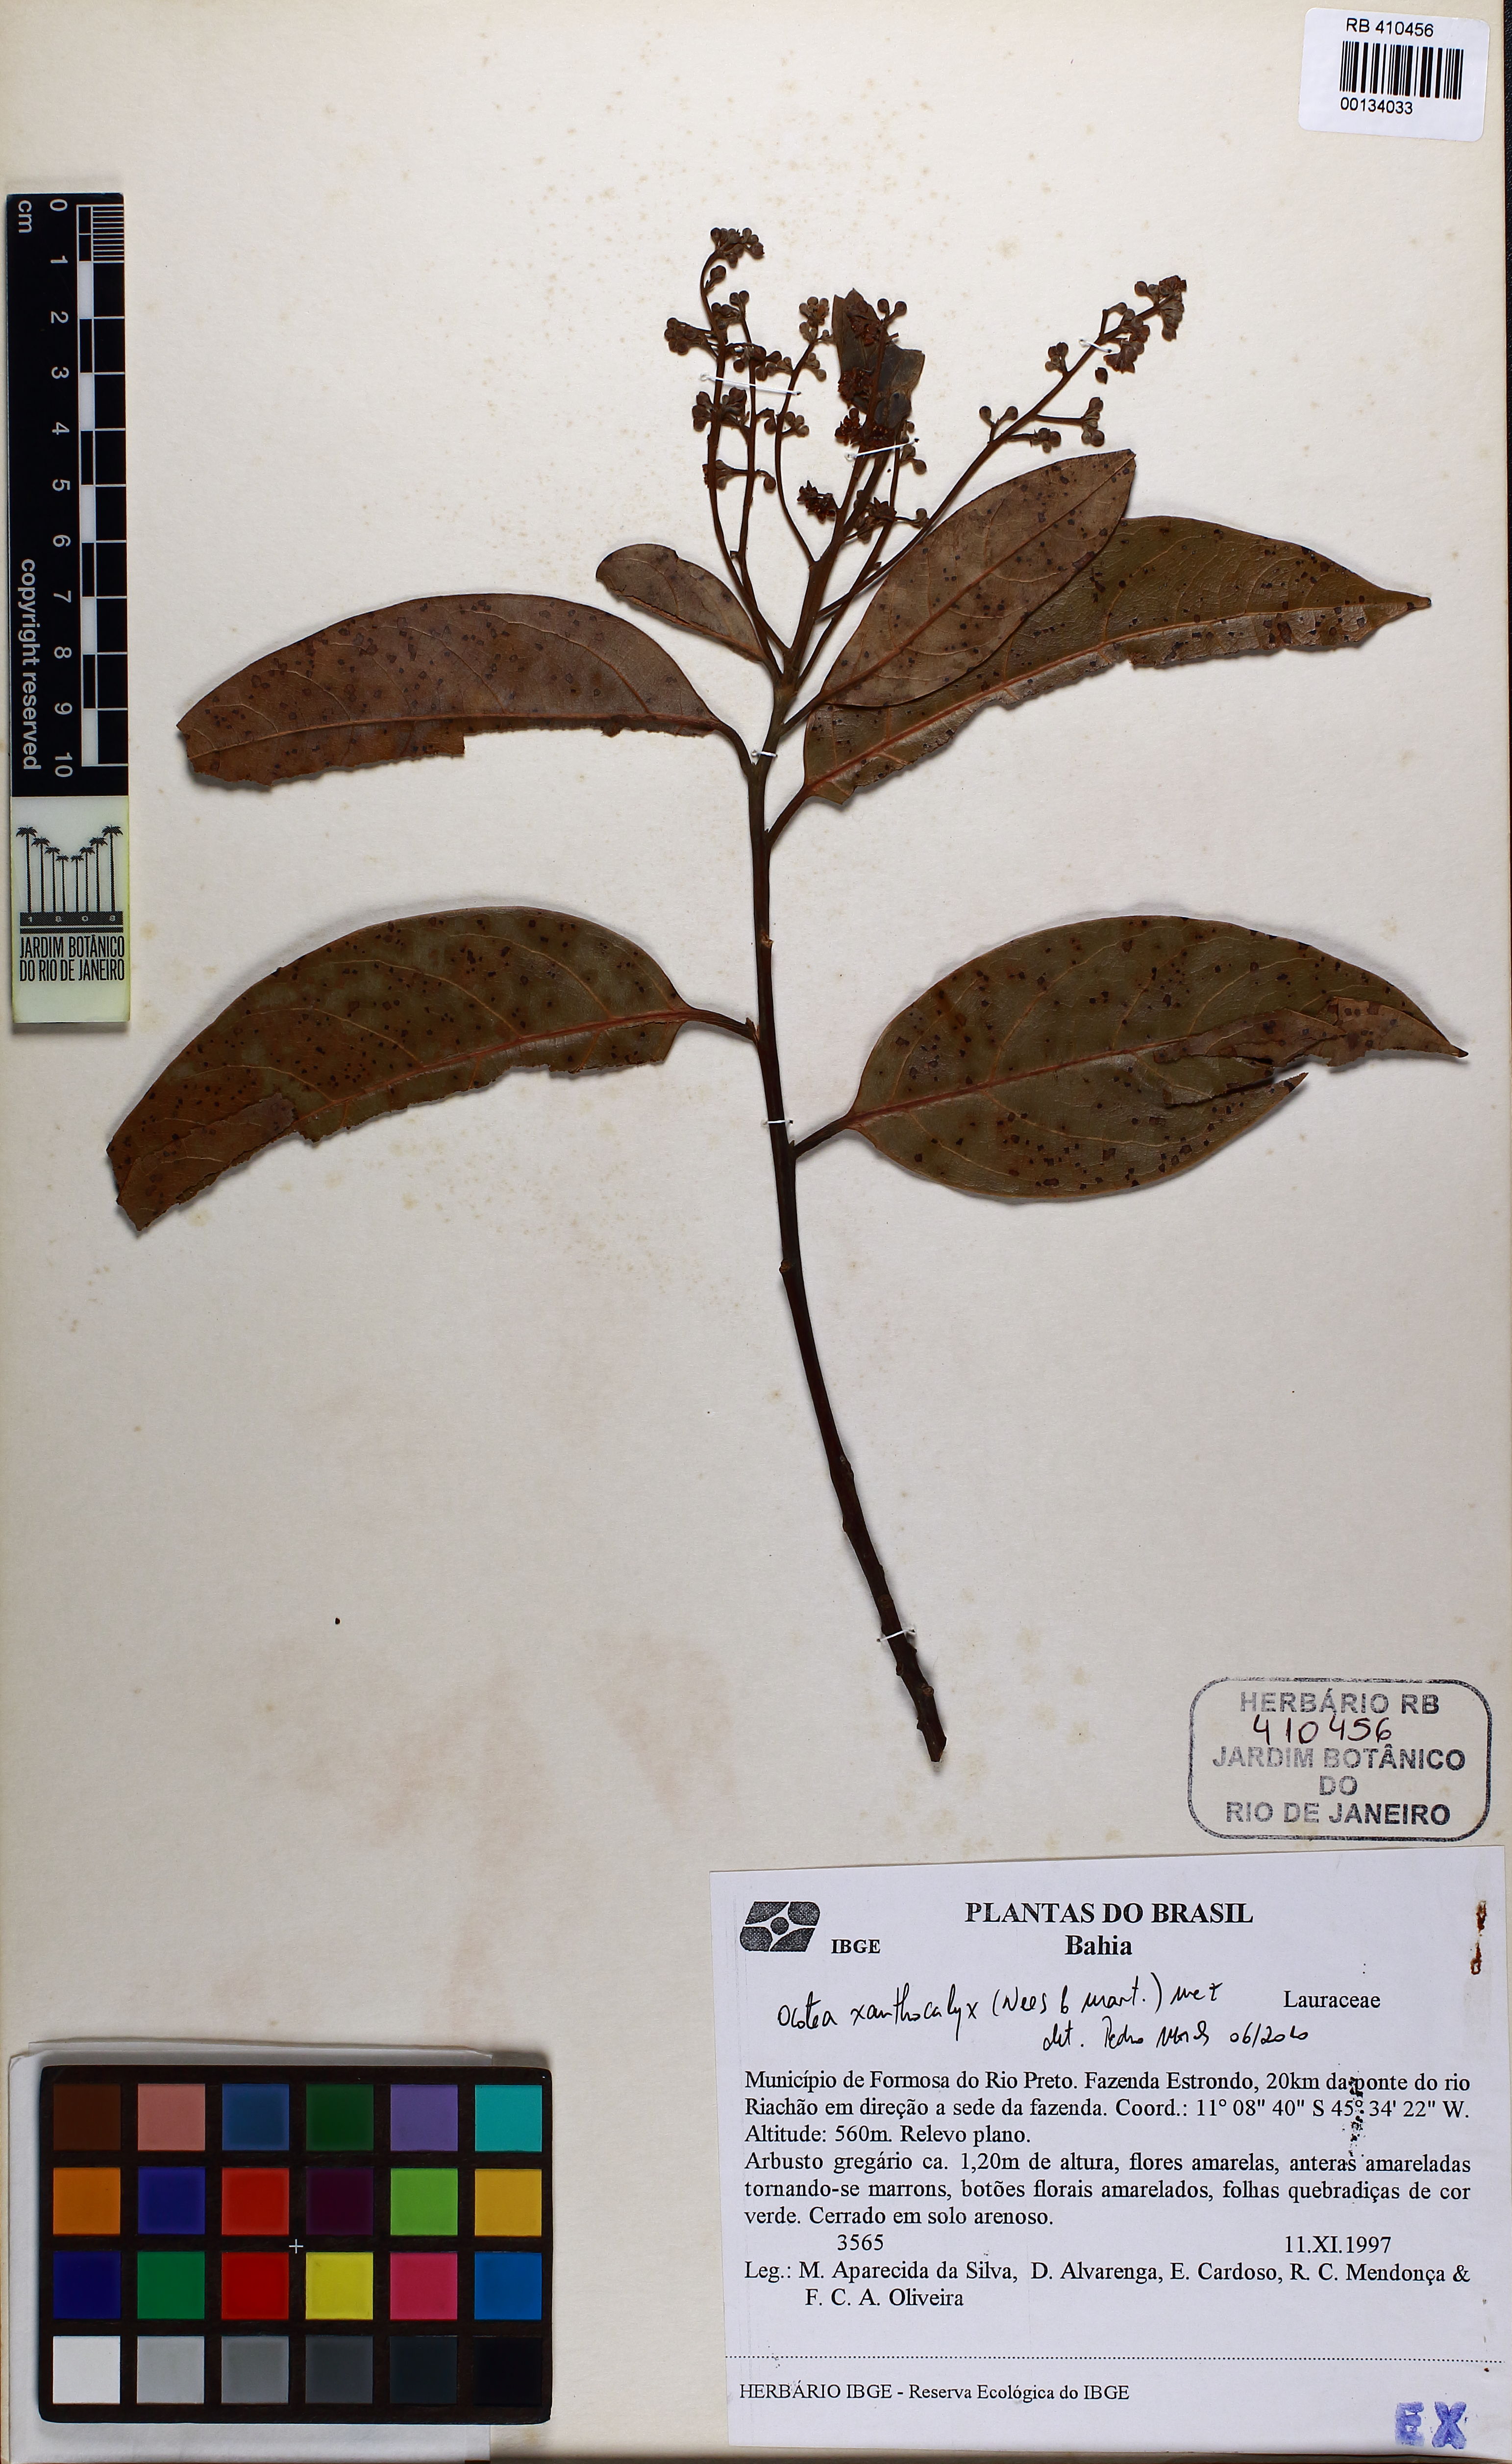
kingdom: Plantae
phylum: Tracheophyta
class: Magnoliopsida
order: Laurales
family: Lauraceae
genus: Ocotea
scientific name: Ocotea xanthocalyx
